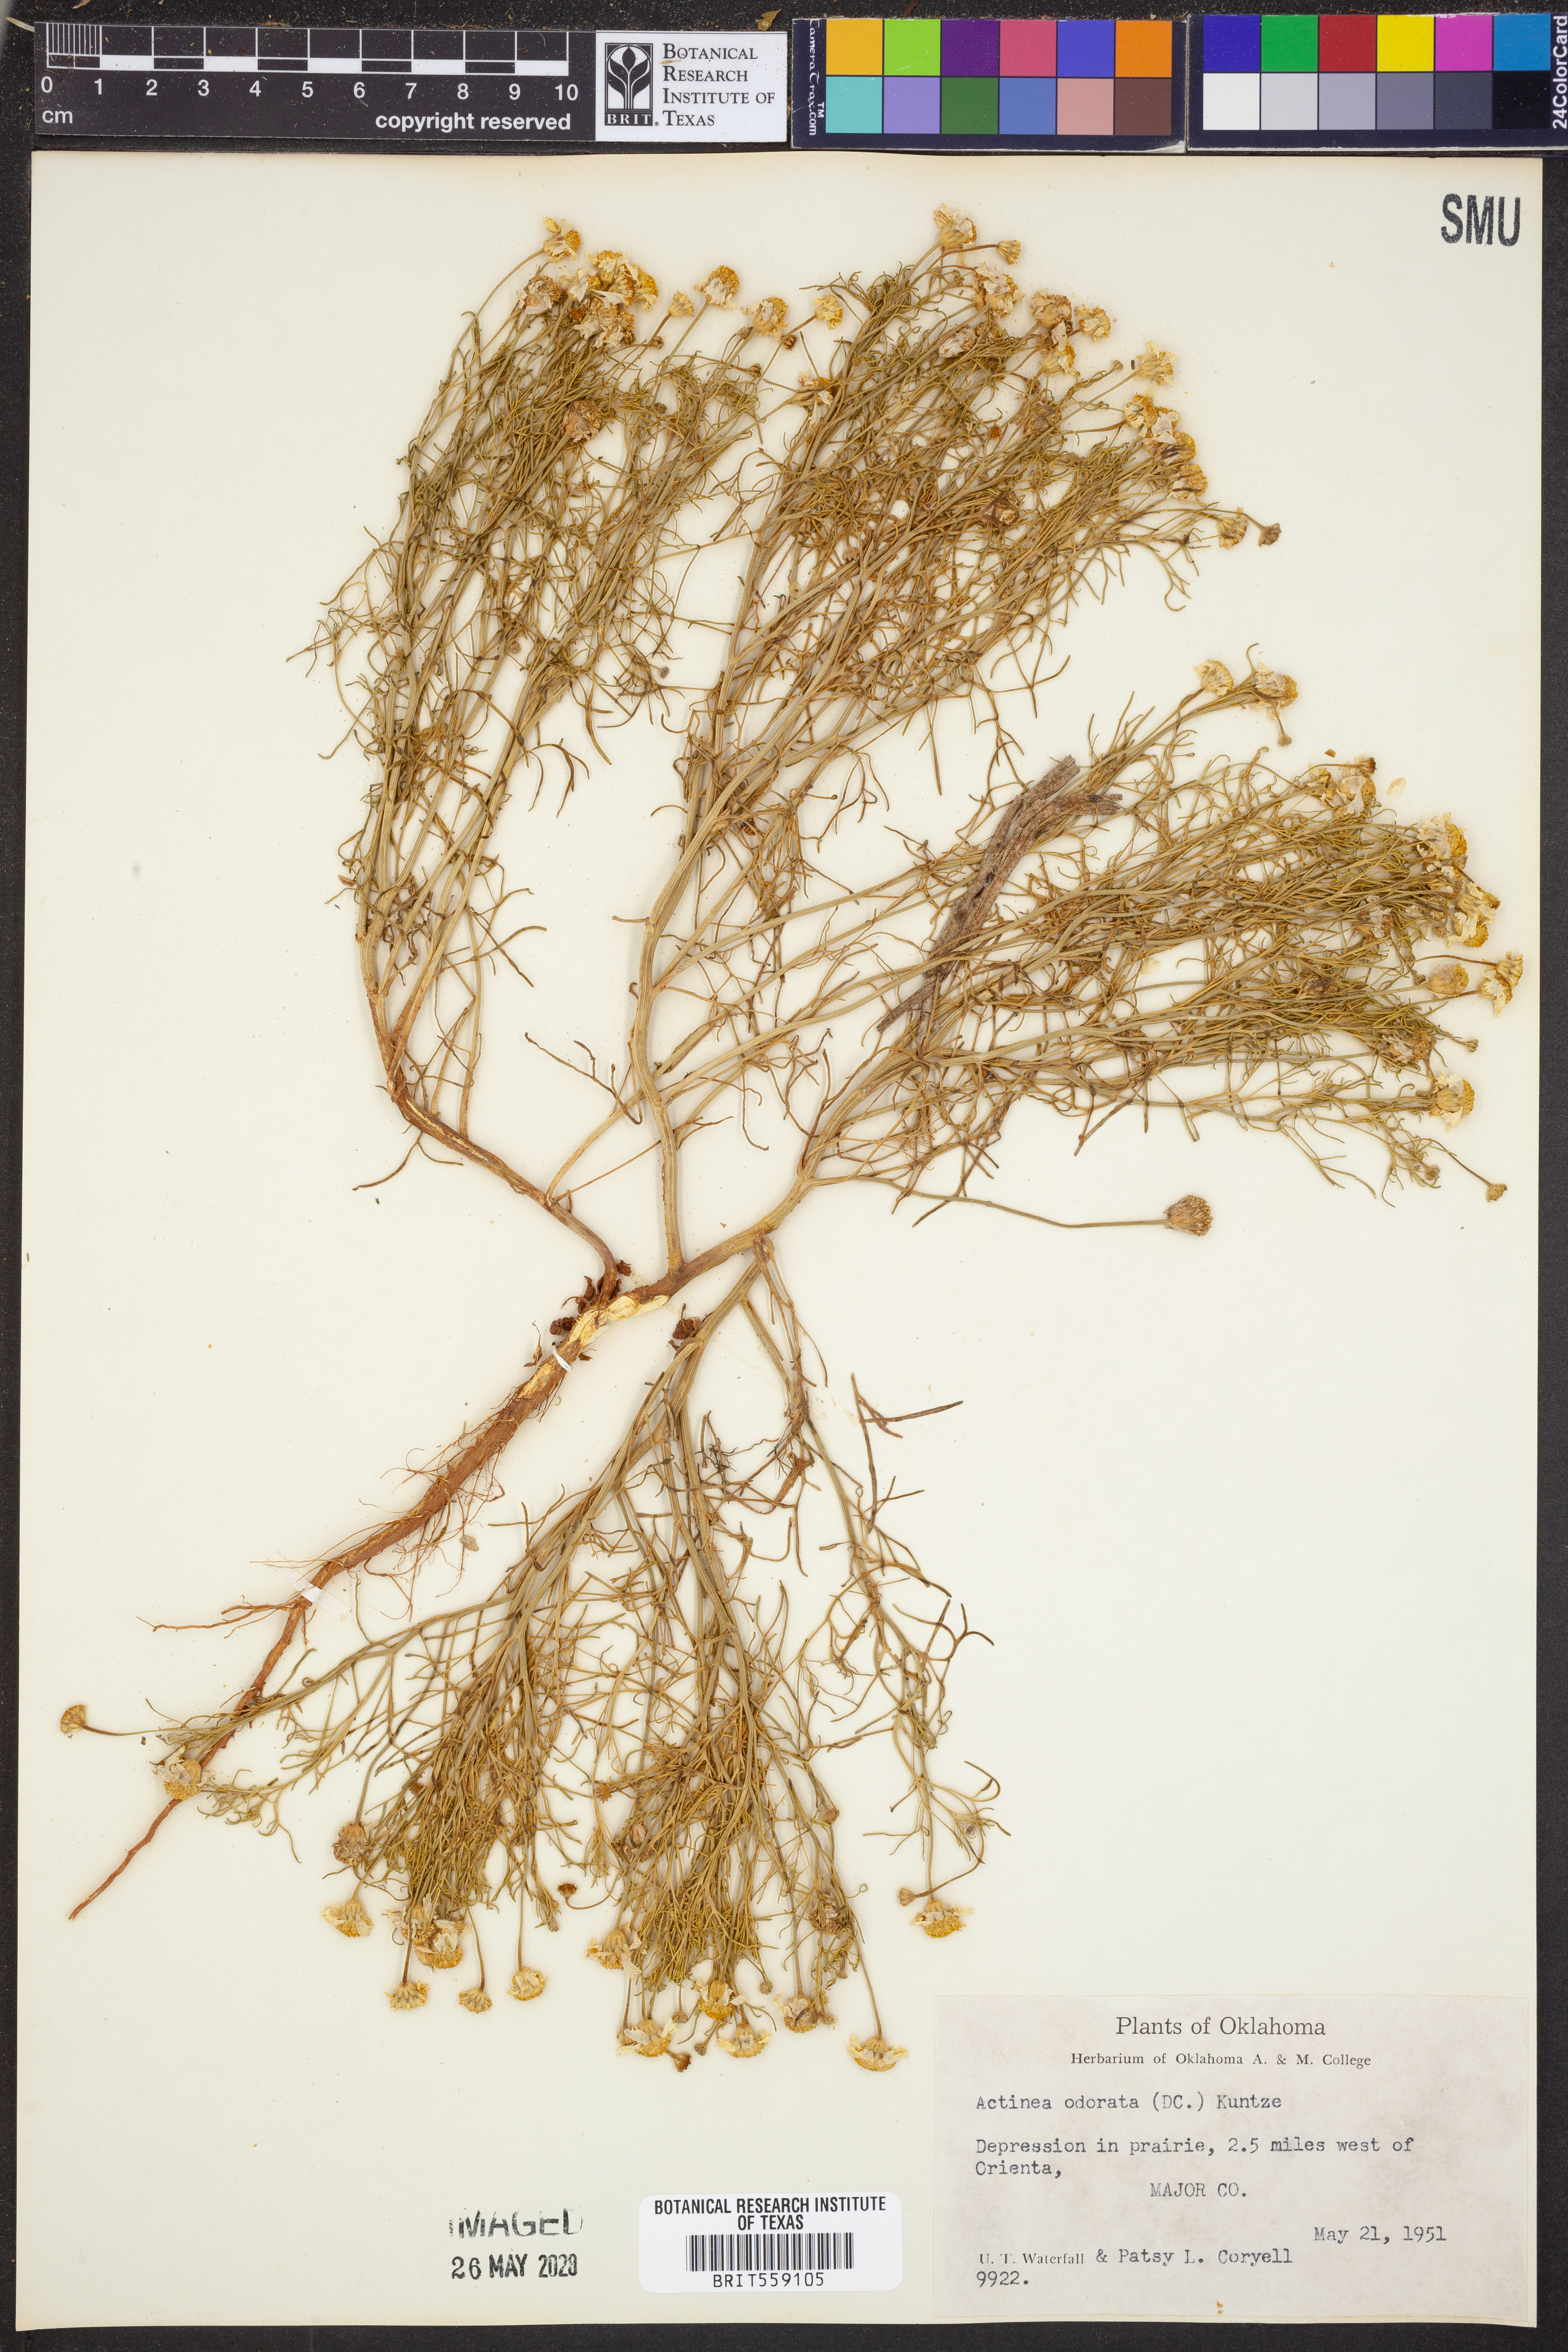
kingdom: Plantae
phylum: Tracheophyta
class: Magnoliopsida
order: Asterales
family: Asteraceae
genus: Hymenoxys
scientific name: Hymenoxys odorata
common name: Bitter rubberweed
